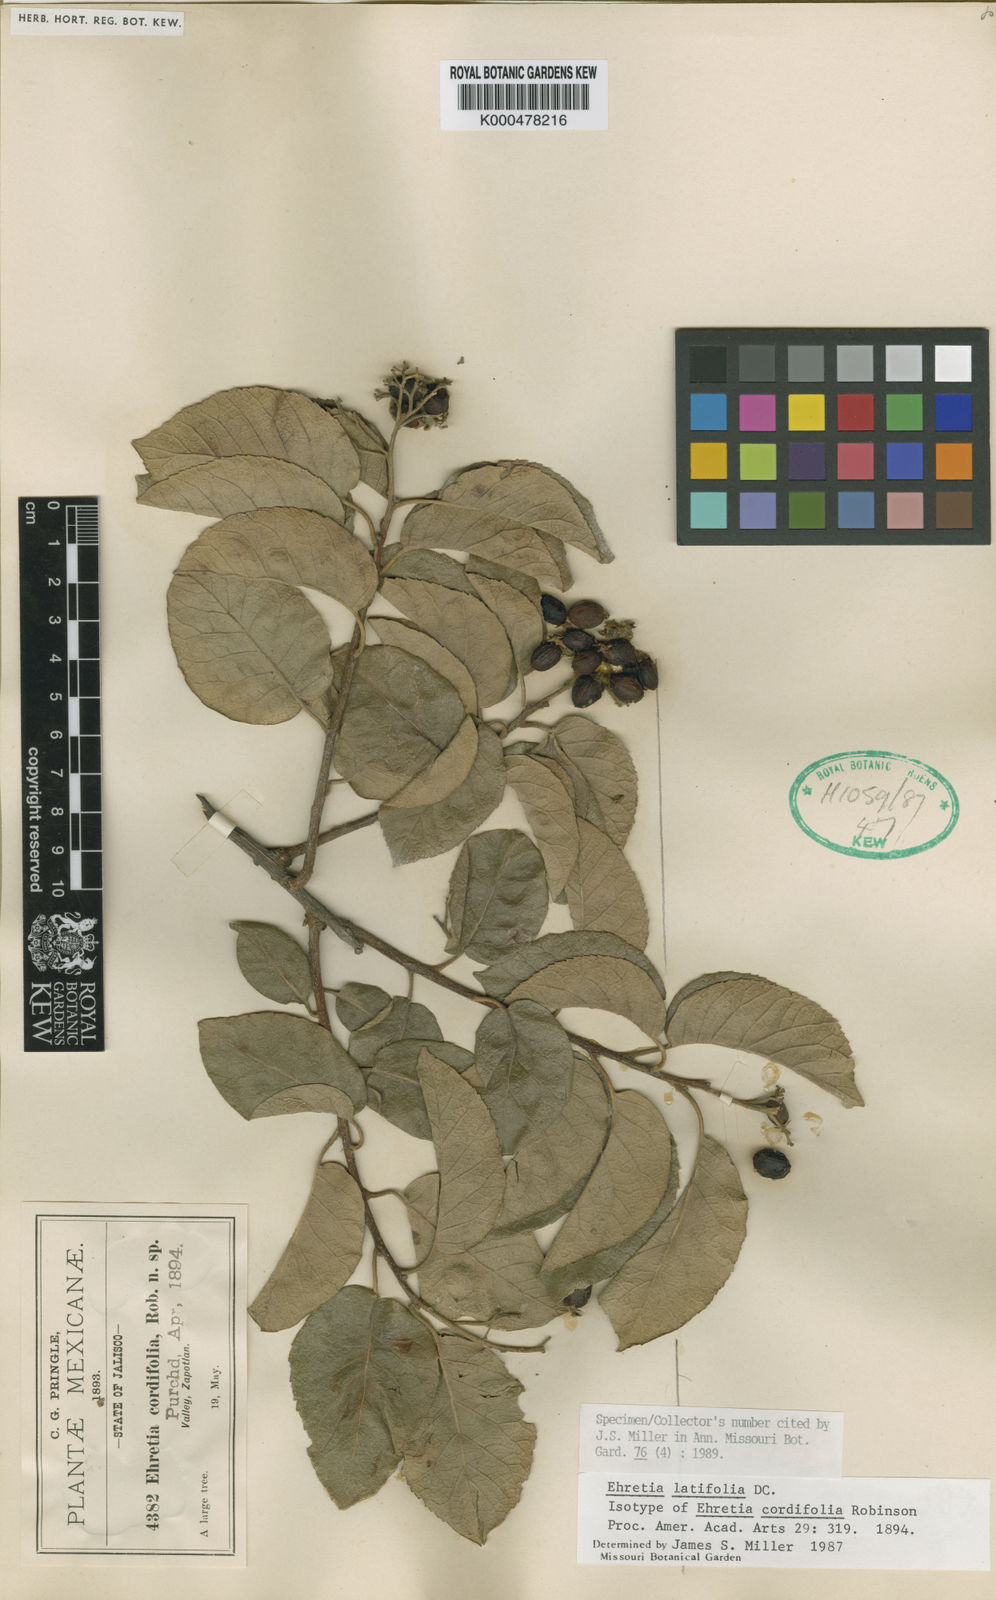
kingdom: Plantae
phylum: Tracheophyta
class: Magnoliopsida
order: Boraginales
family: Ehretiaceae
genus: Ehretia
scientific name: Ehretia
